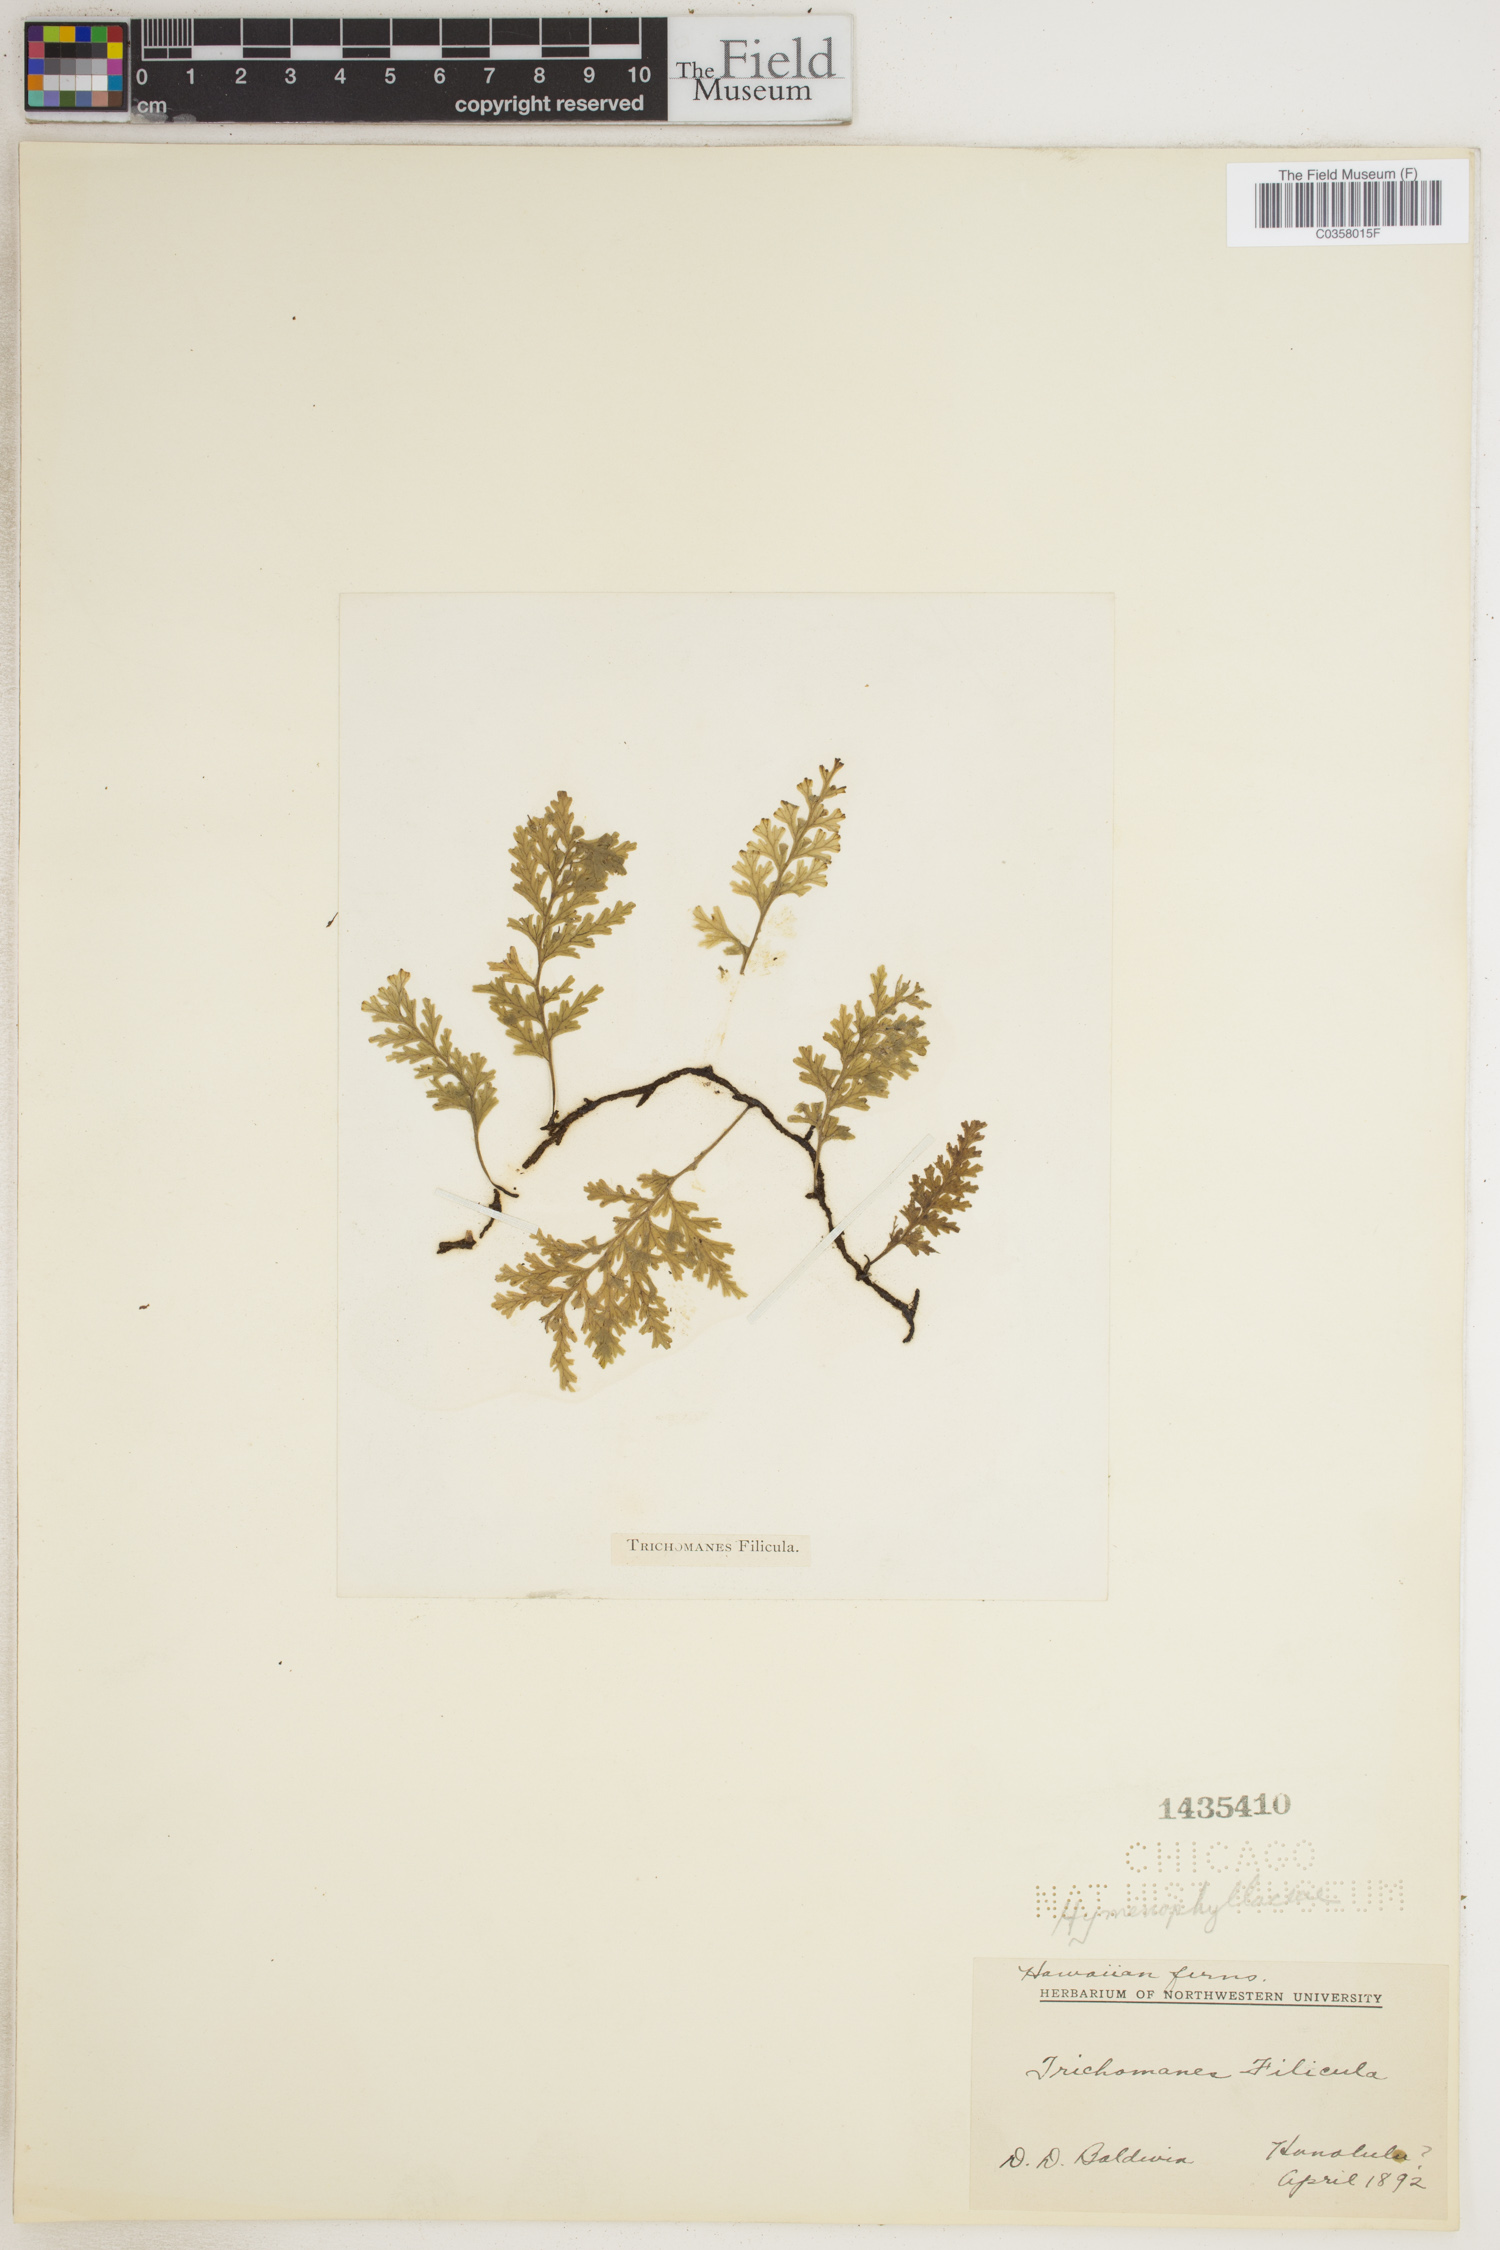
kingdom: Plantae
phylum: Tracheophyta
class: Polypodiopsida
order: Hymenophyllales
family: Hymenophyllaceae
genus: Crepidomanes
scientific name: Crepidomanes bipunctatum
